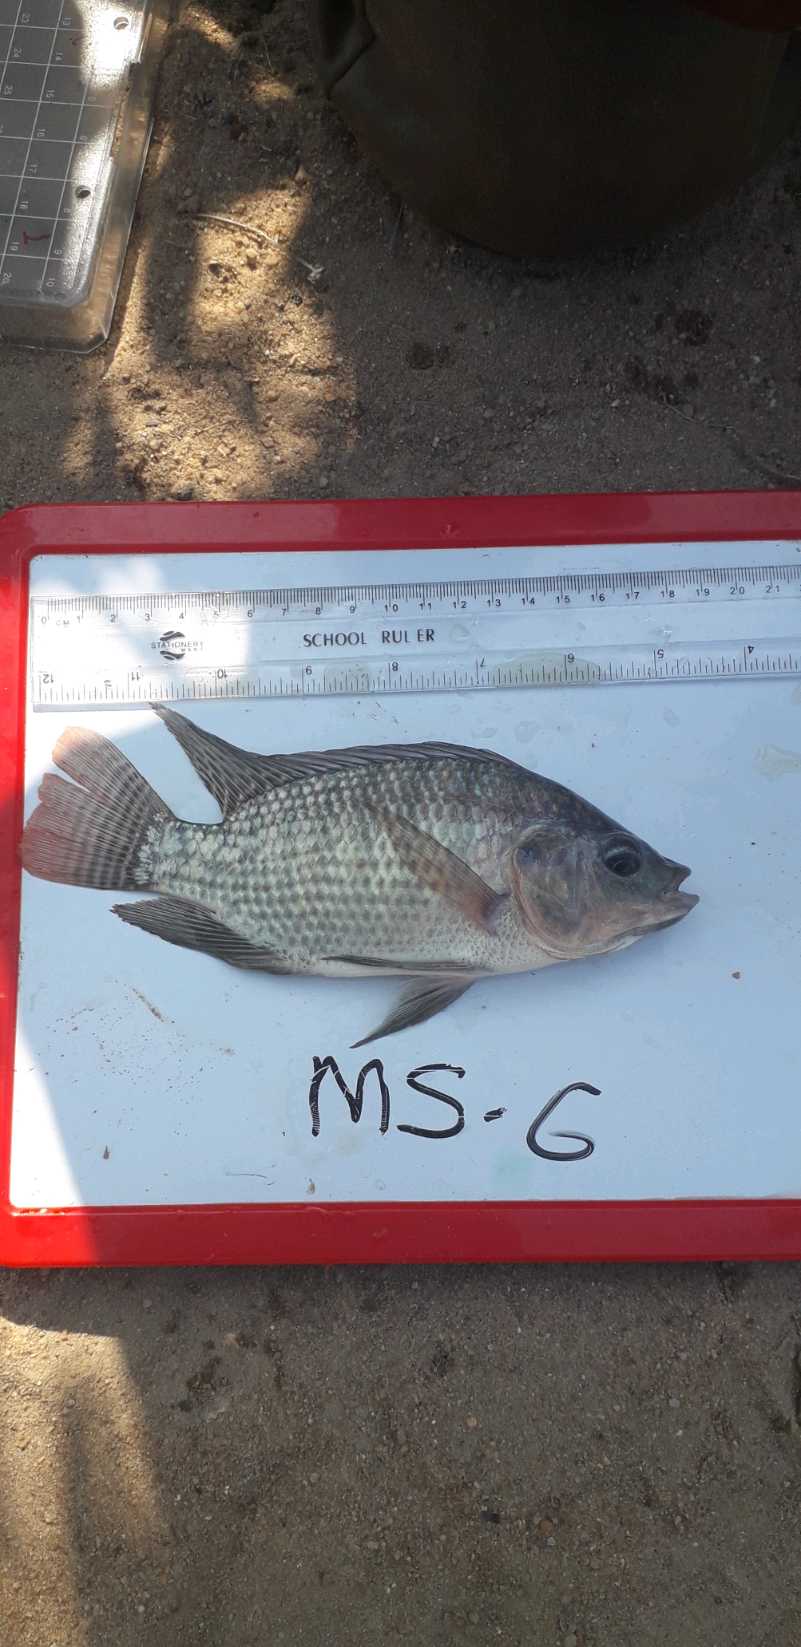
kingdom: Animalia
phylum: Chordata
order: Perciformes
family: Cichlidae
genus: Oreochromis
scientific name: Oreochromis niloticus
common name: Nile tilapia
